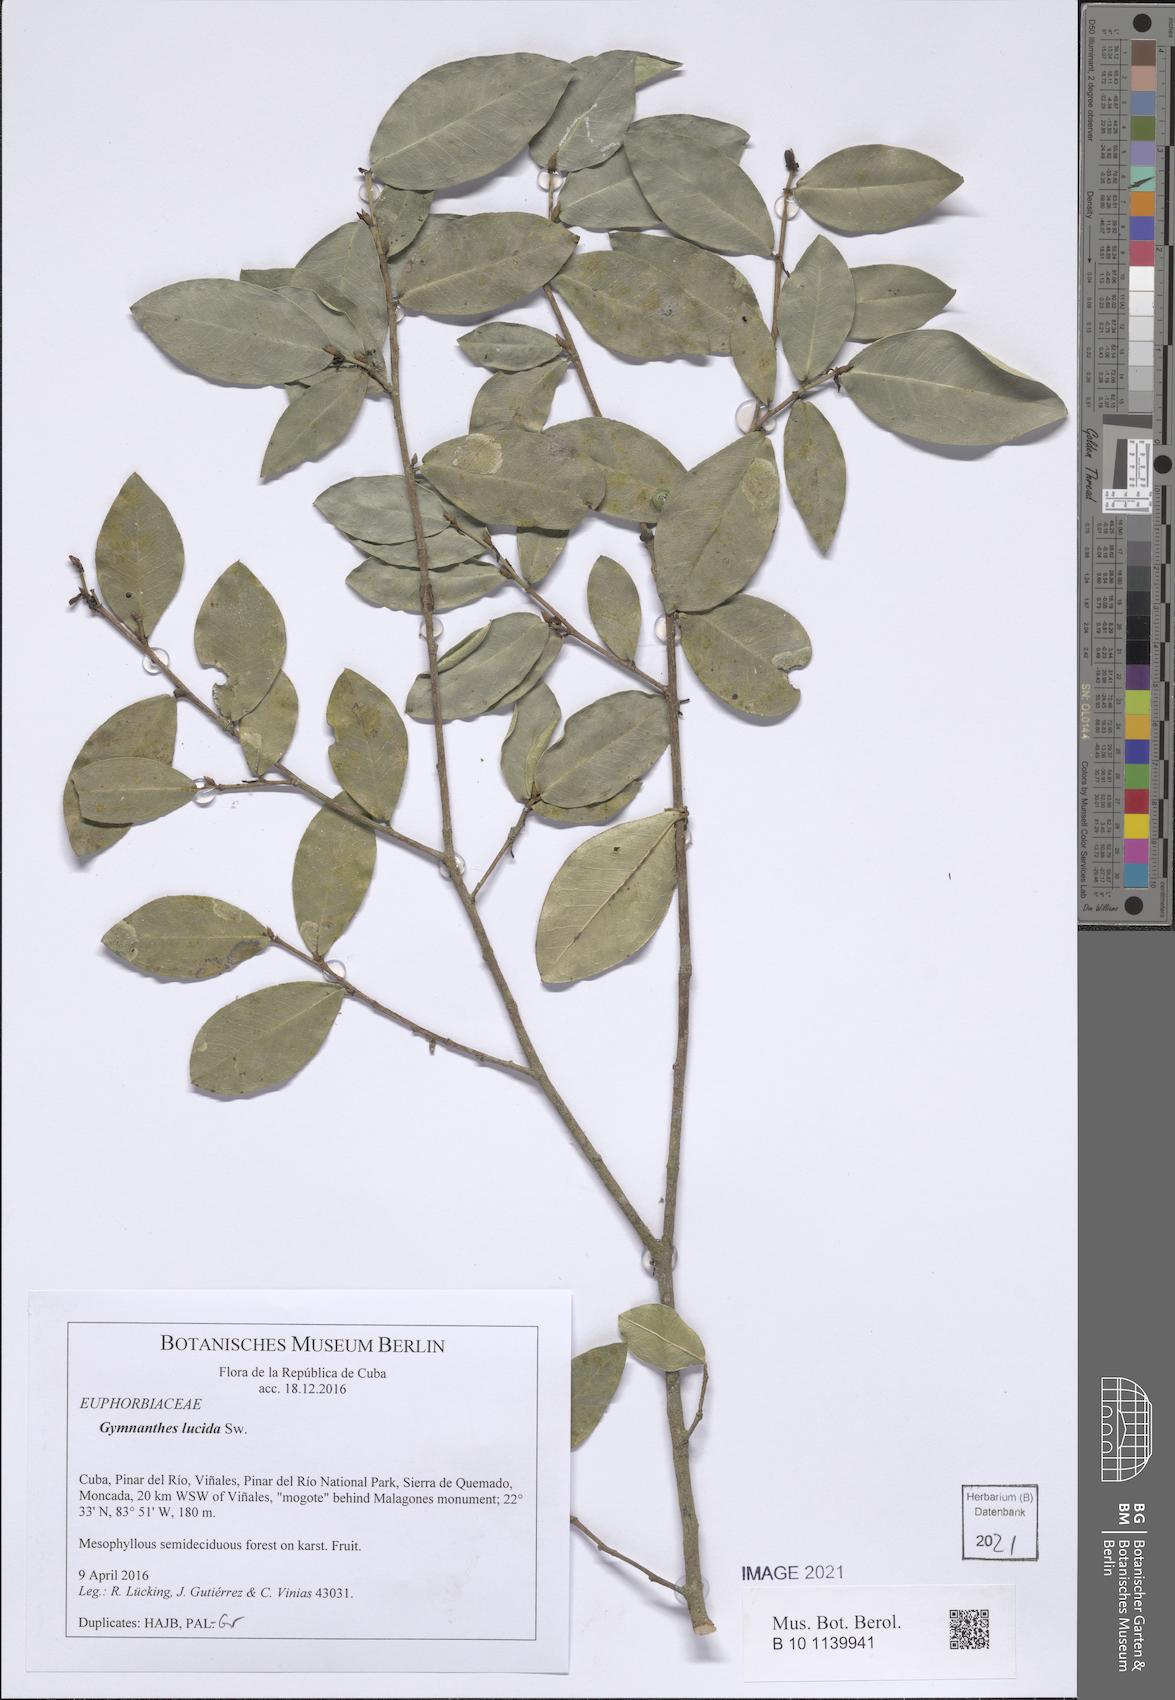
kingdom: Plantae
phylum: Tracheophyta
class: Magnoliopsida
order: Malpighiales
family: Euphorbiaceae
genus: Gymnanthes
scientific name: Gymnanthes lucida
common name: Oysterwood
